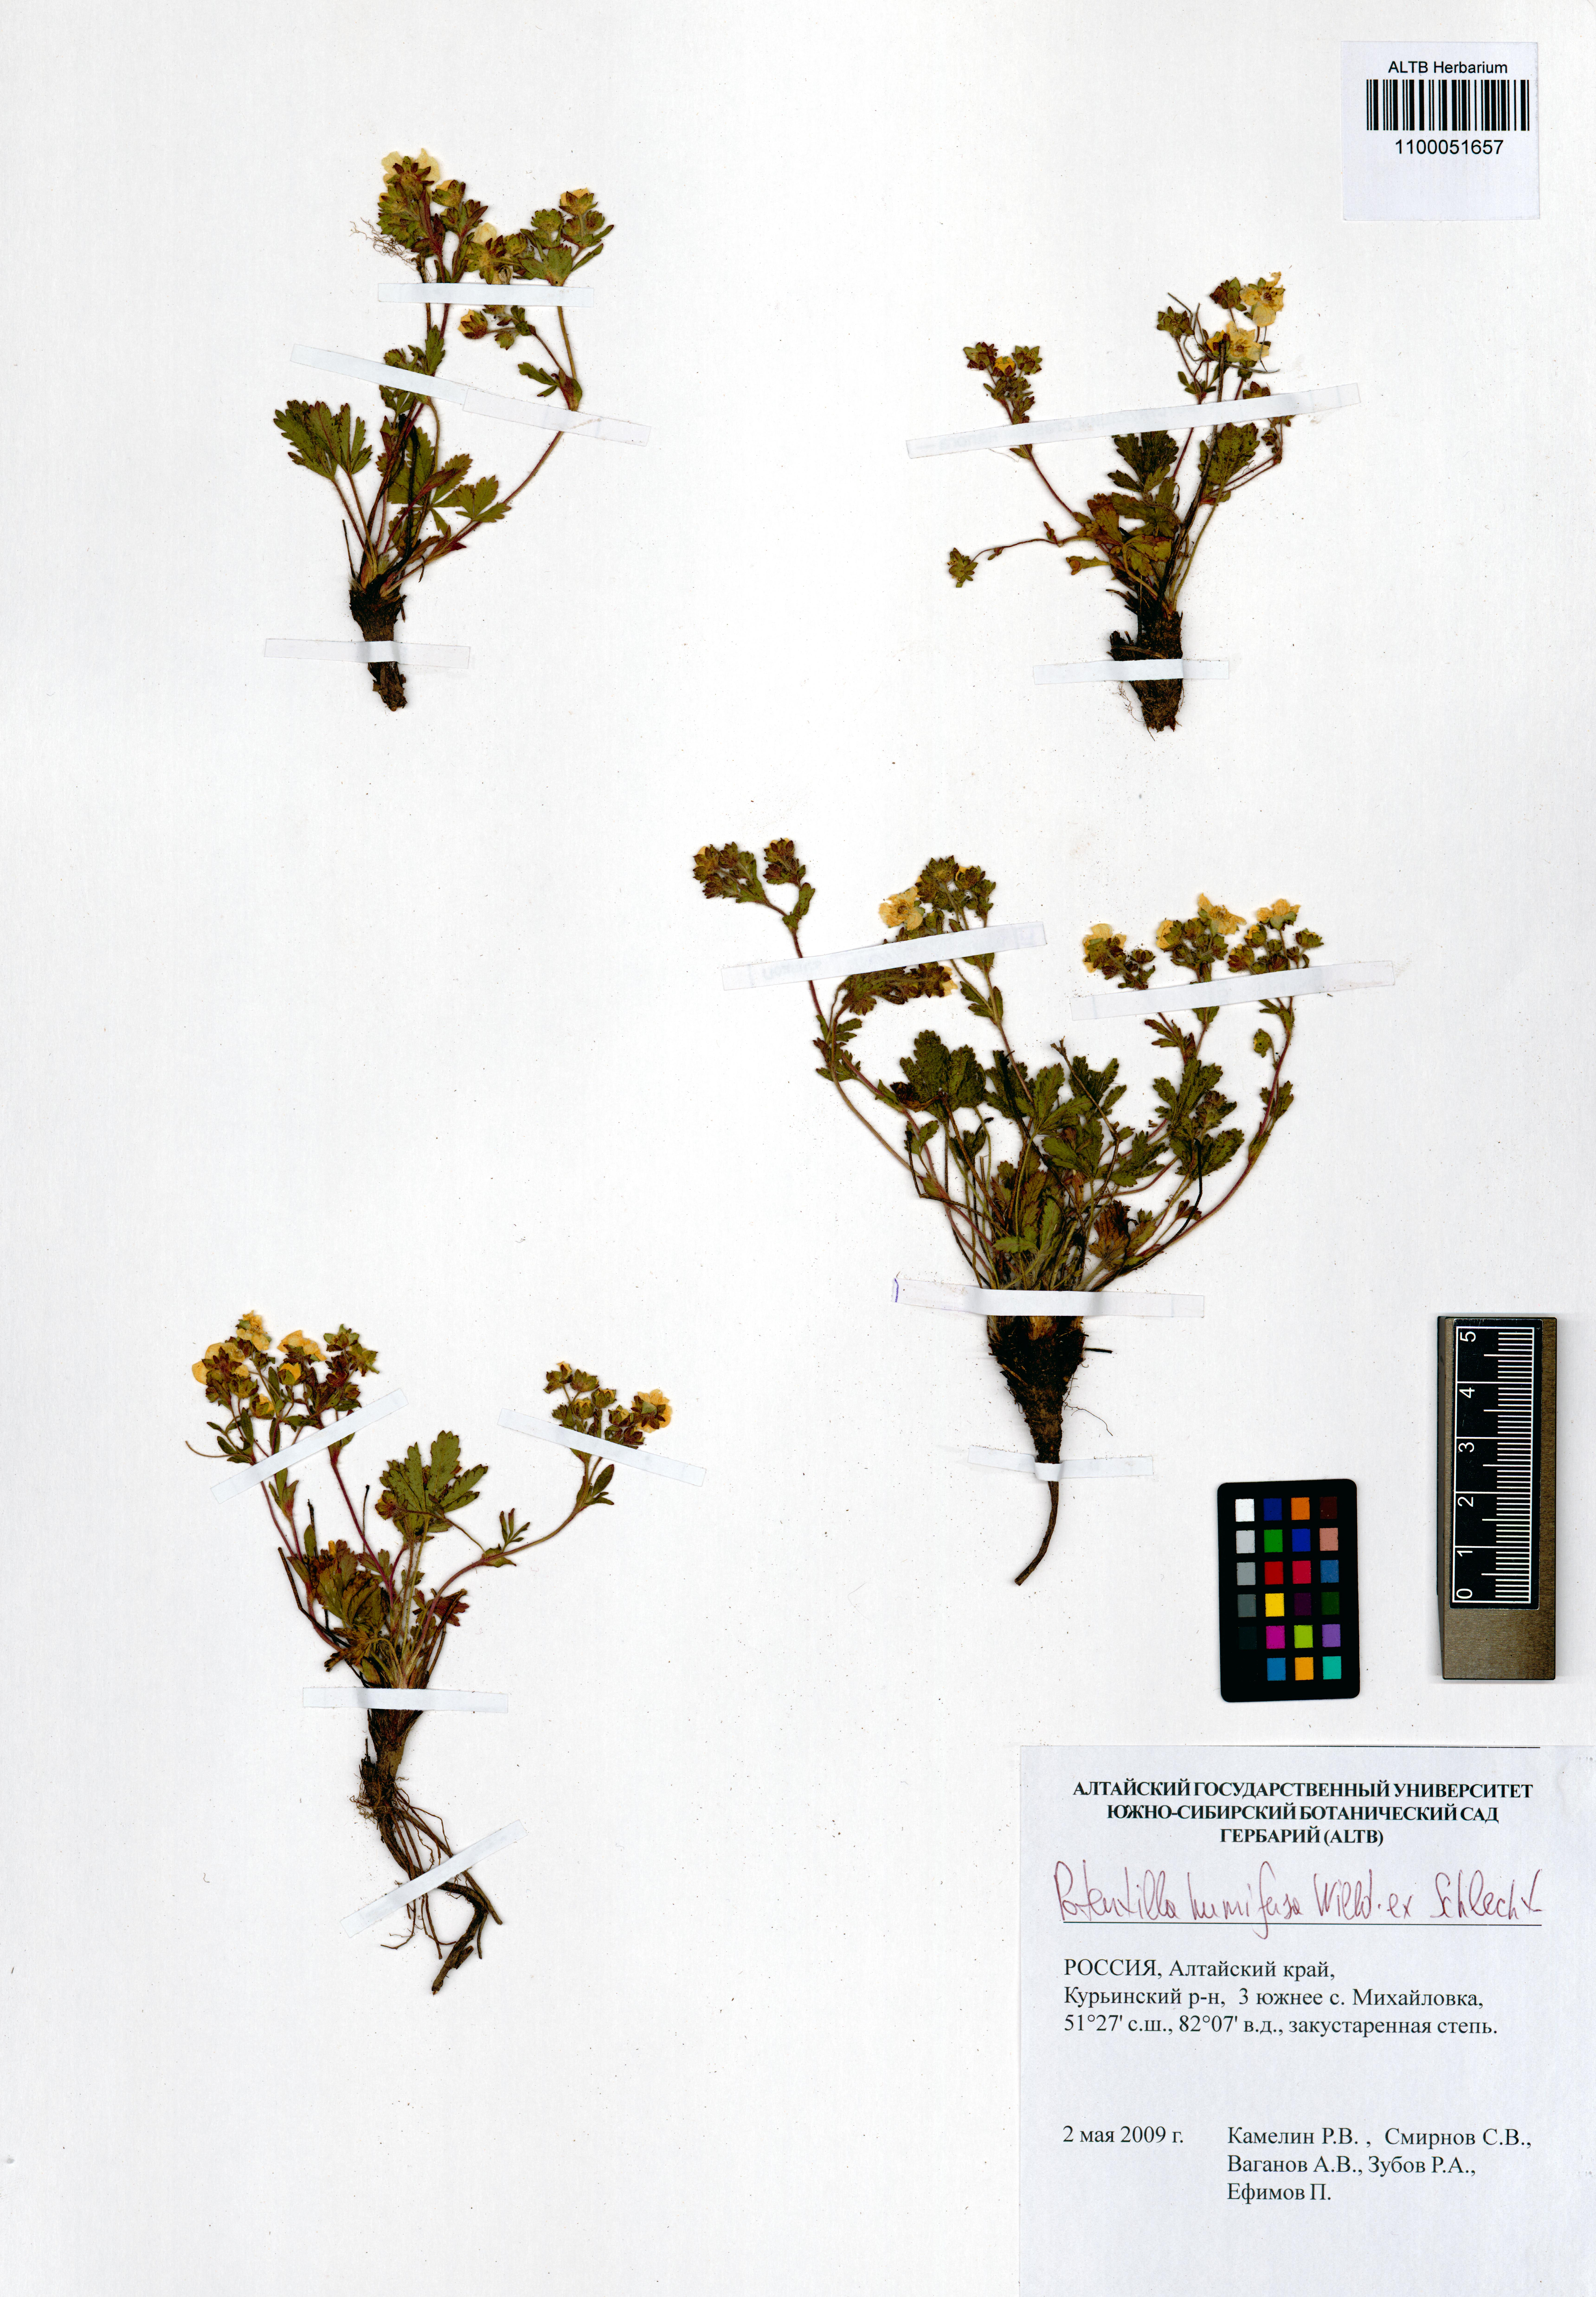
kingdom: Plantae
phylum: Tracheophyta
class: Magnoliopsida
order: Rosales
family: Rosaceae
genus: Potentilla
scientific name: Potentilla humifusa
